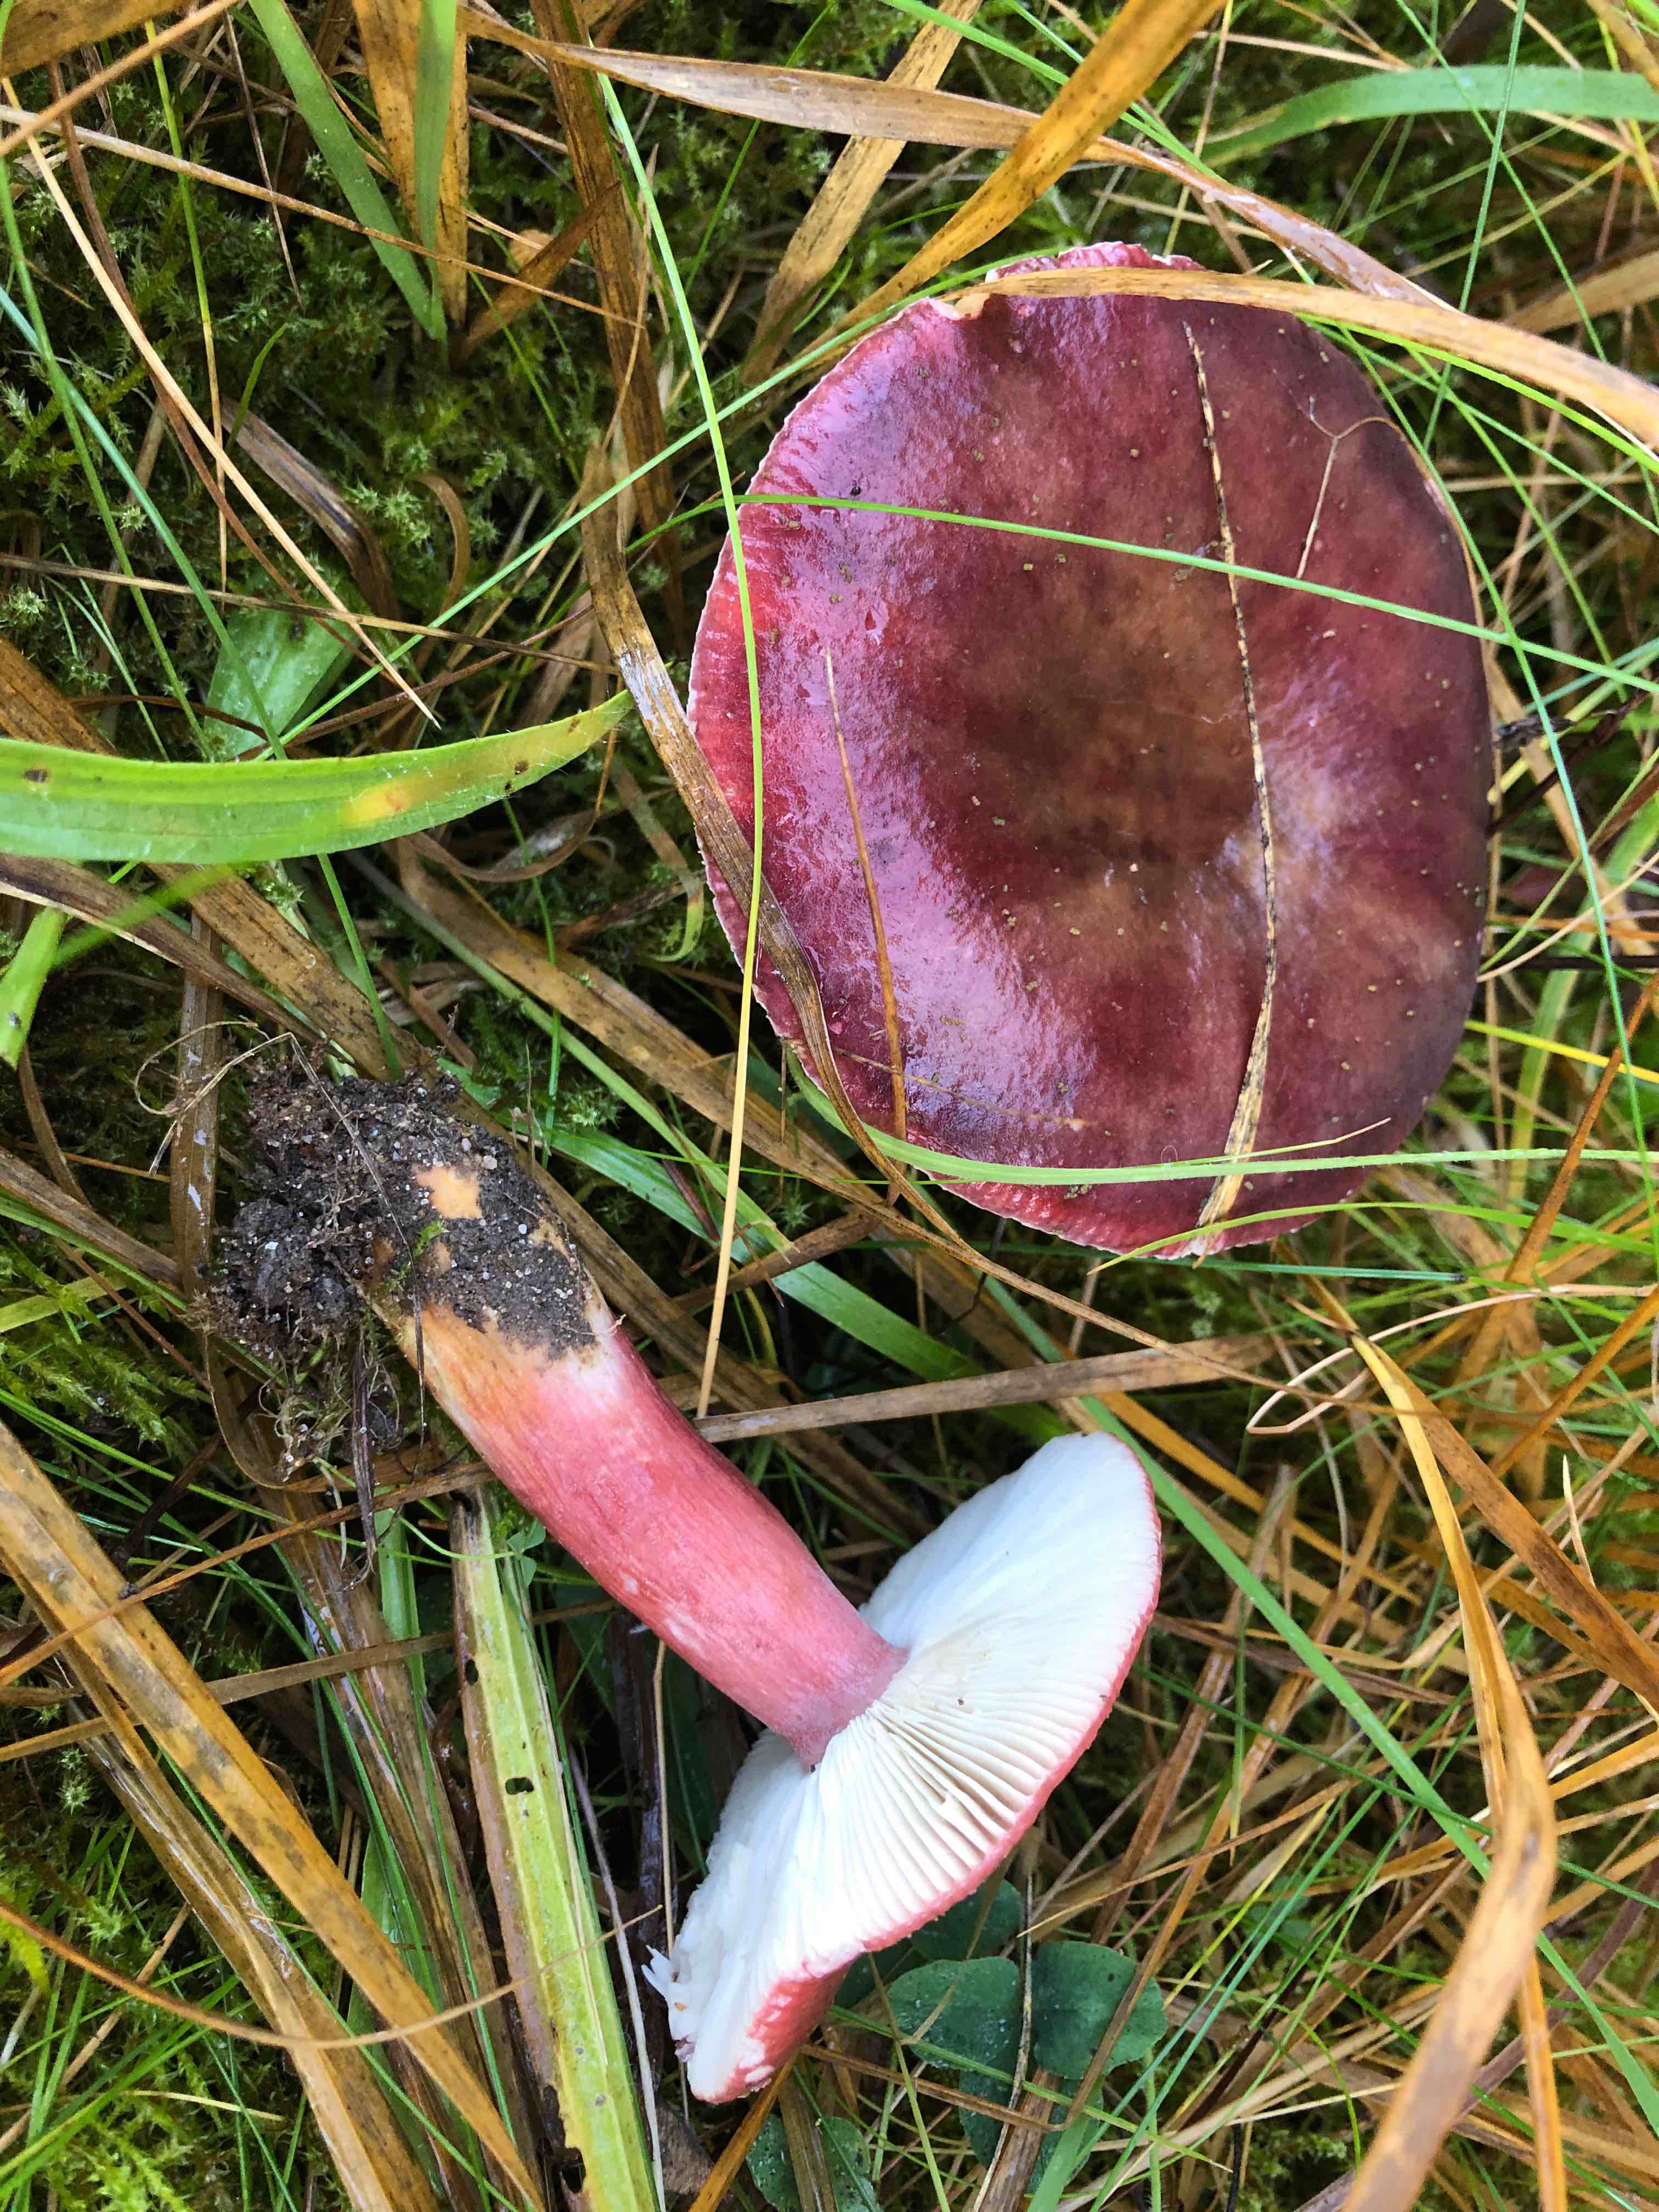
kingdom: Fungi
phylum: Basidiomycota
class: Agaricomycetes
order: Russulales
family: Russulaceae
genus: Russula
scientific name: Russula queletii
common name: Quélets skørhat
